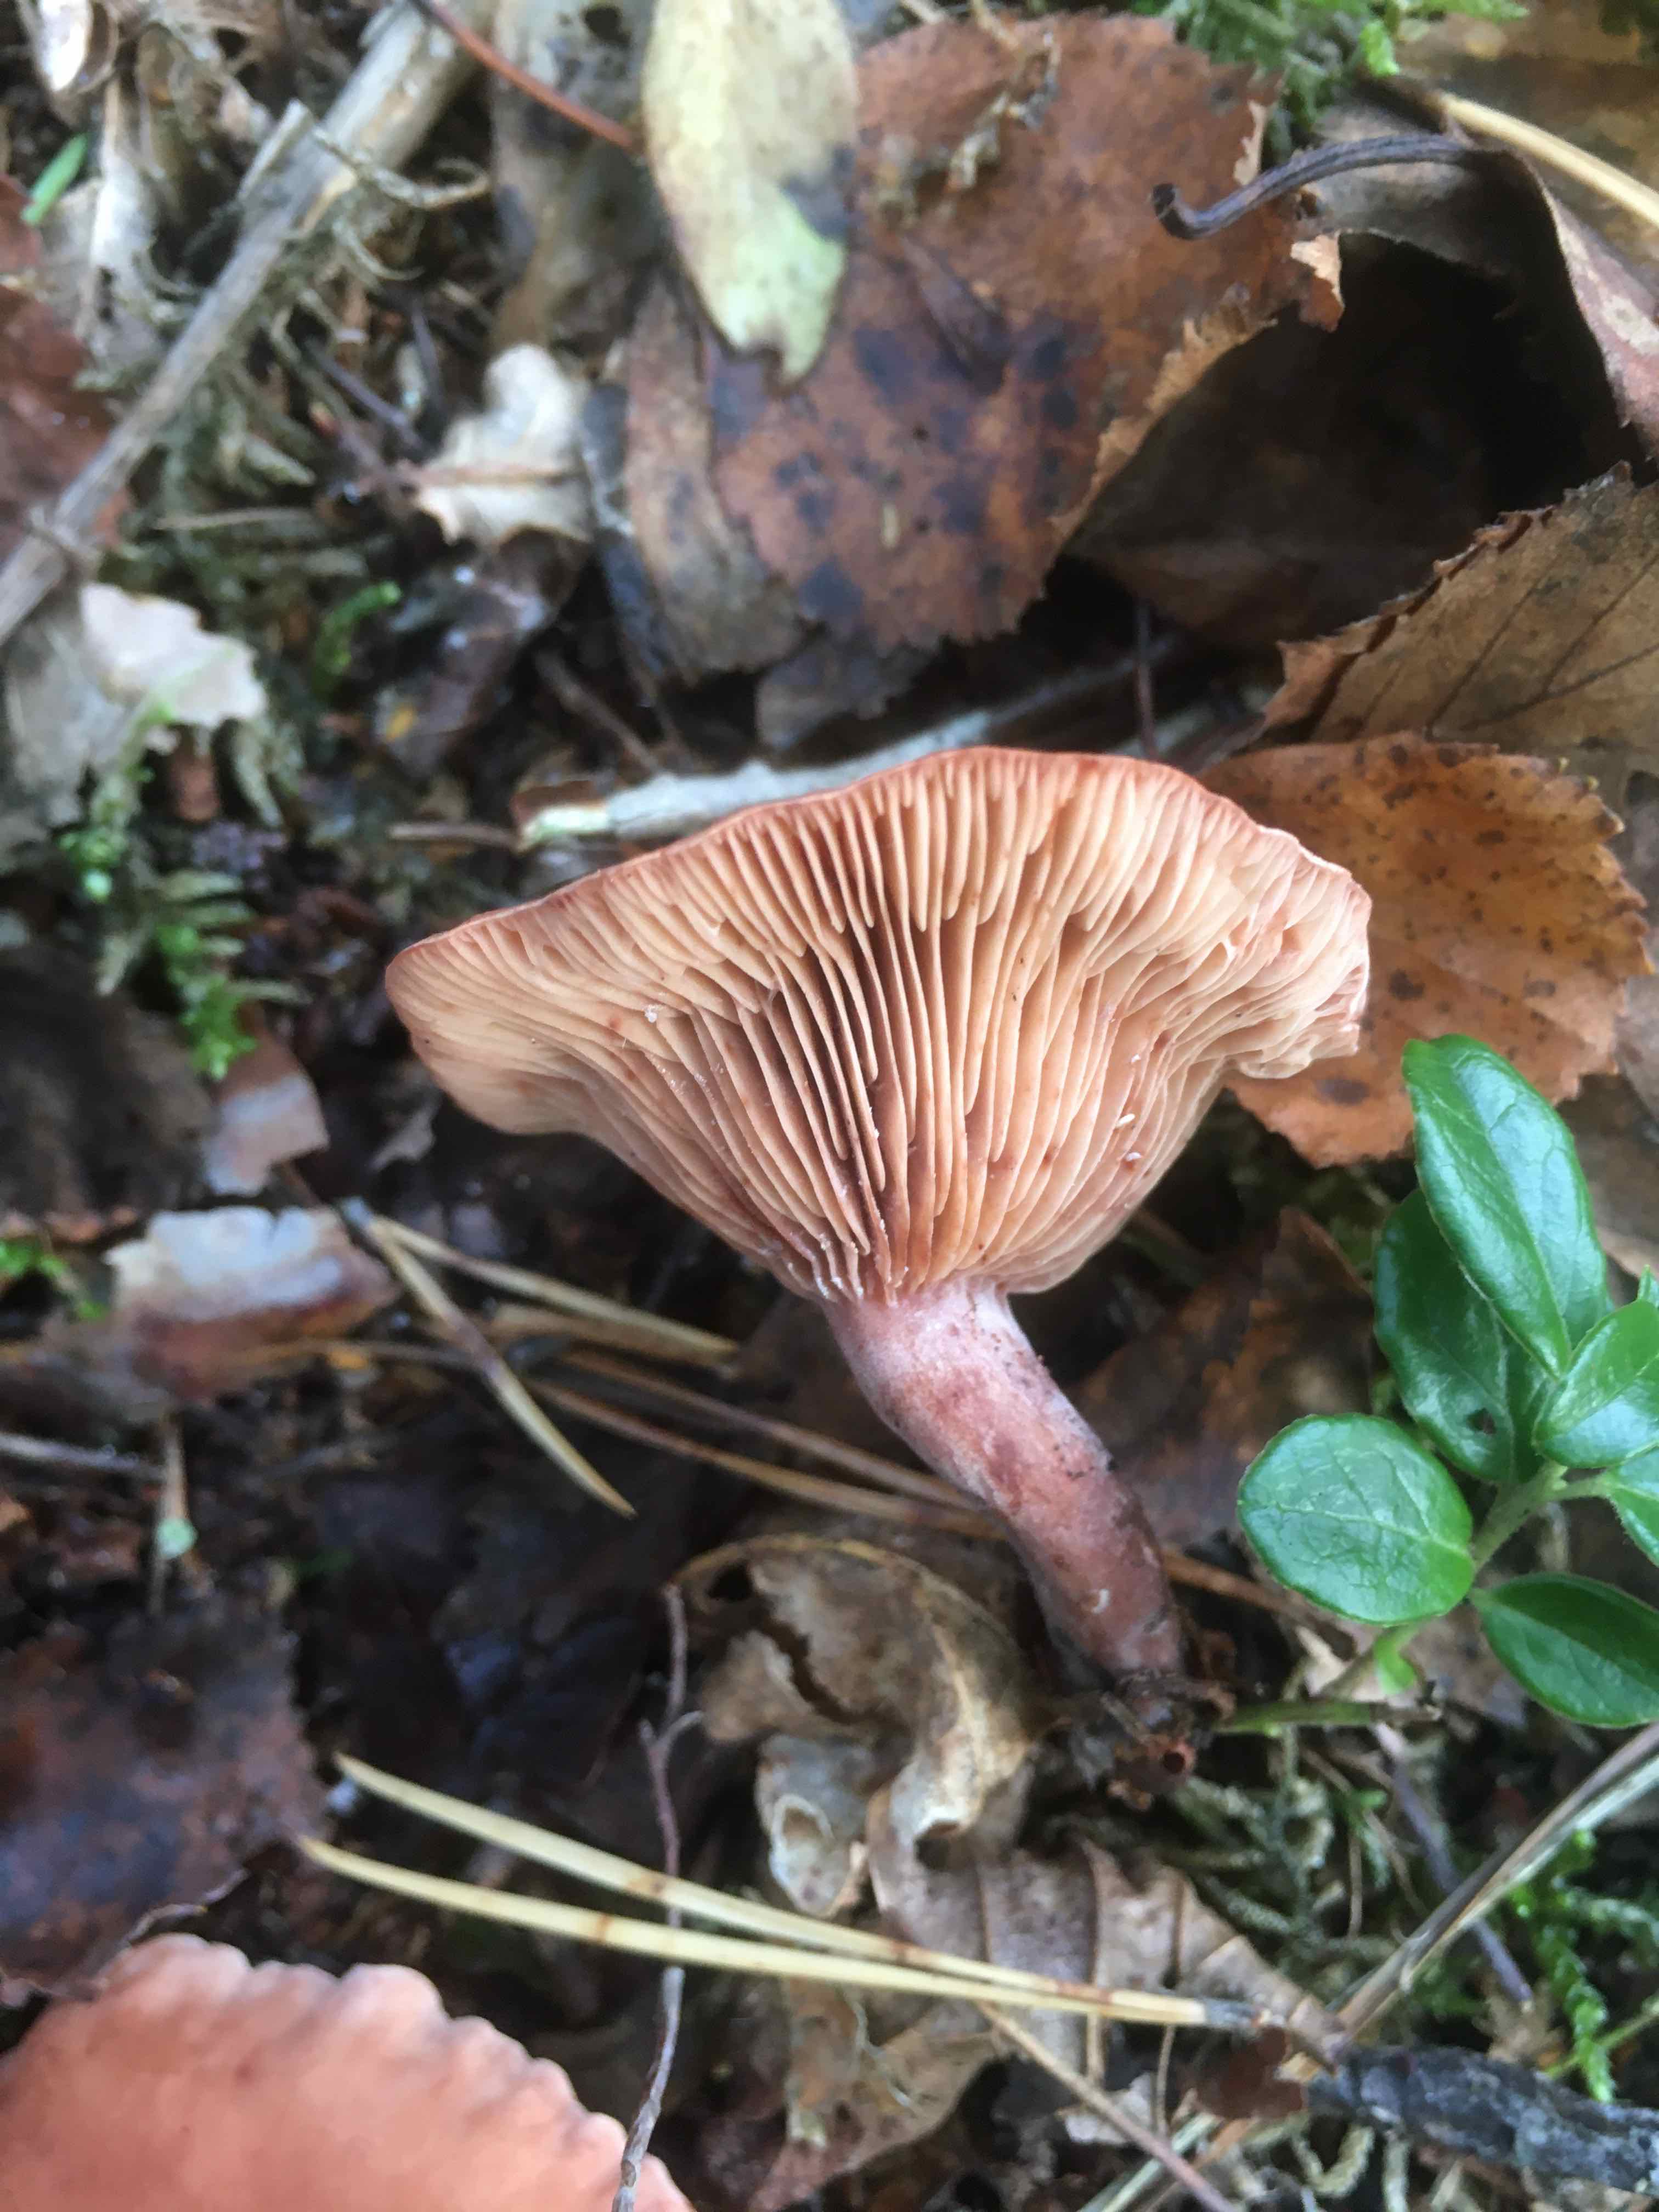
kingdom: Fungi
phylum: Basidiomycota
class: Agaricomycetes
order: Russulales
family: Russulaceae
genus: Lactarius
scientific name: Lactarius camphoratus
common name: kamfer-mælkehat
